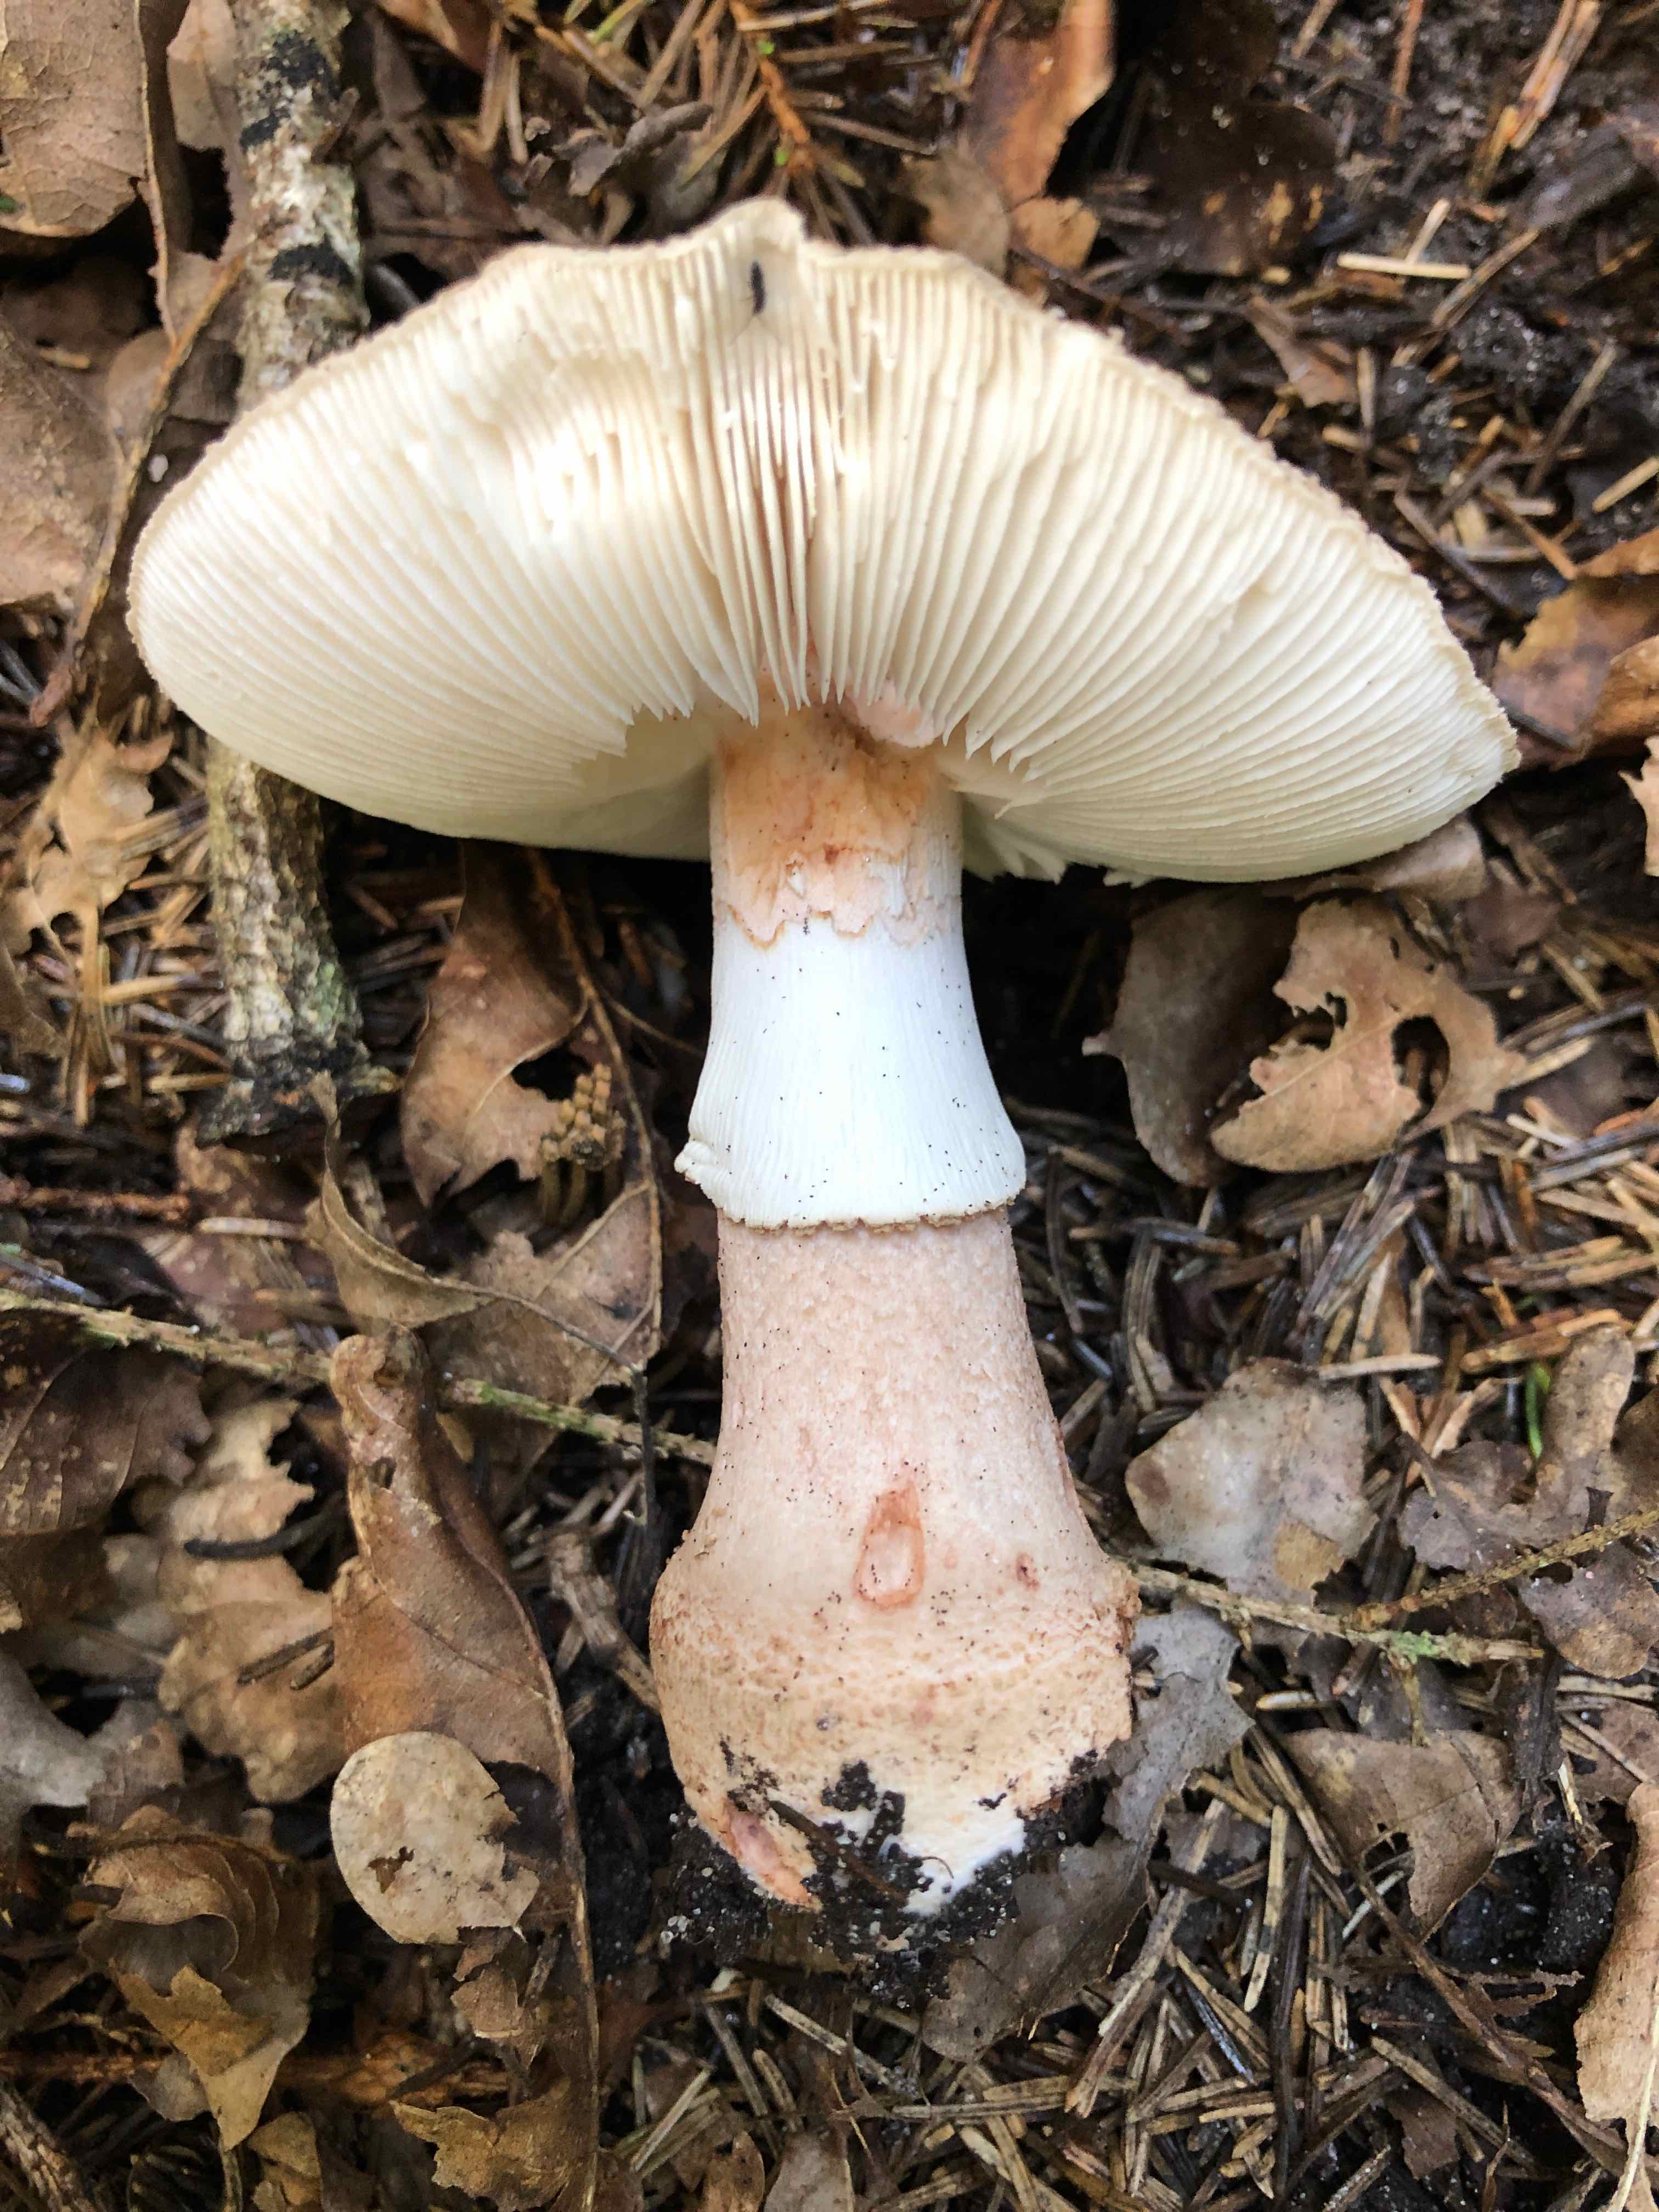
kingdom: Fungi
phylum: Basidiomycota
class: Agaricomycetes
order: Agaricales
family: Amanitaceae
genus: Amanita
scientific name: Amanita rubescens
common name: rødmende fluesvamp
